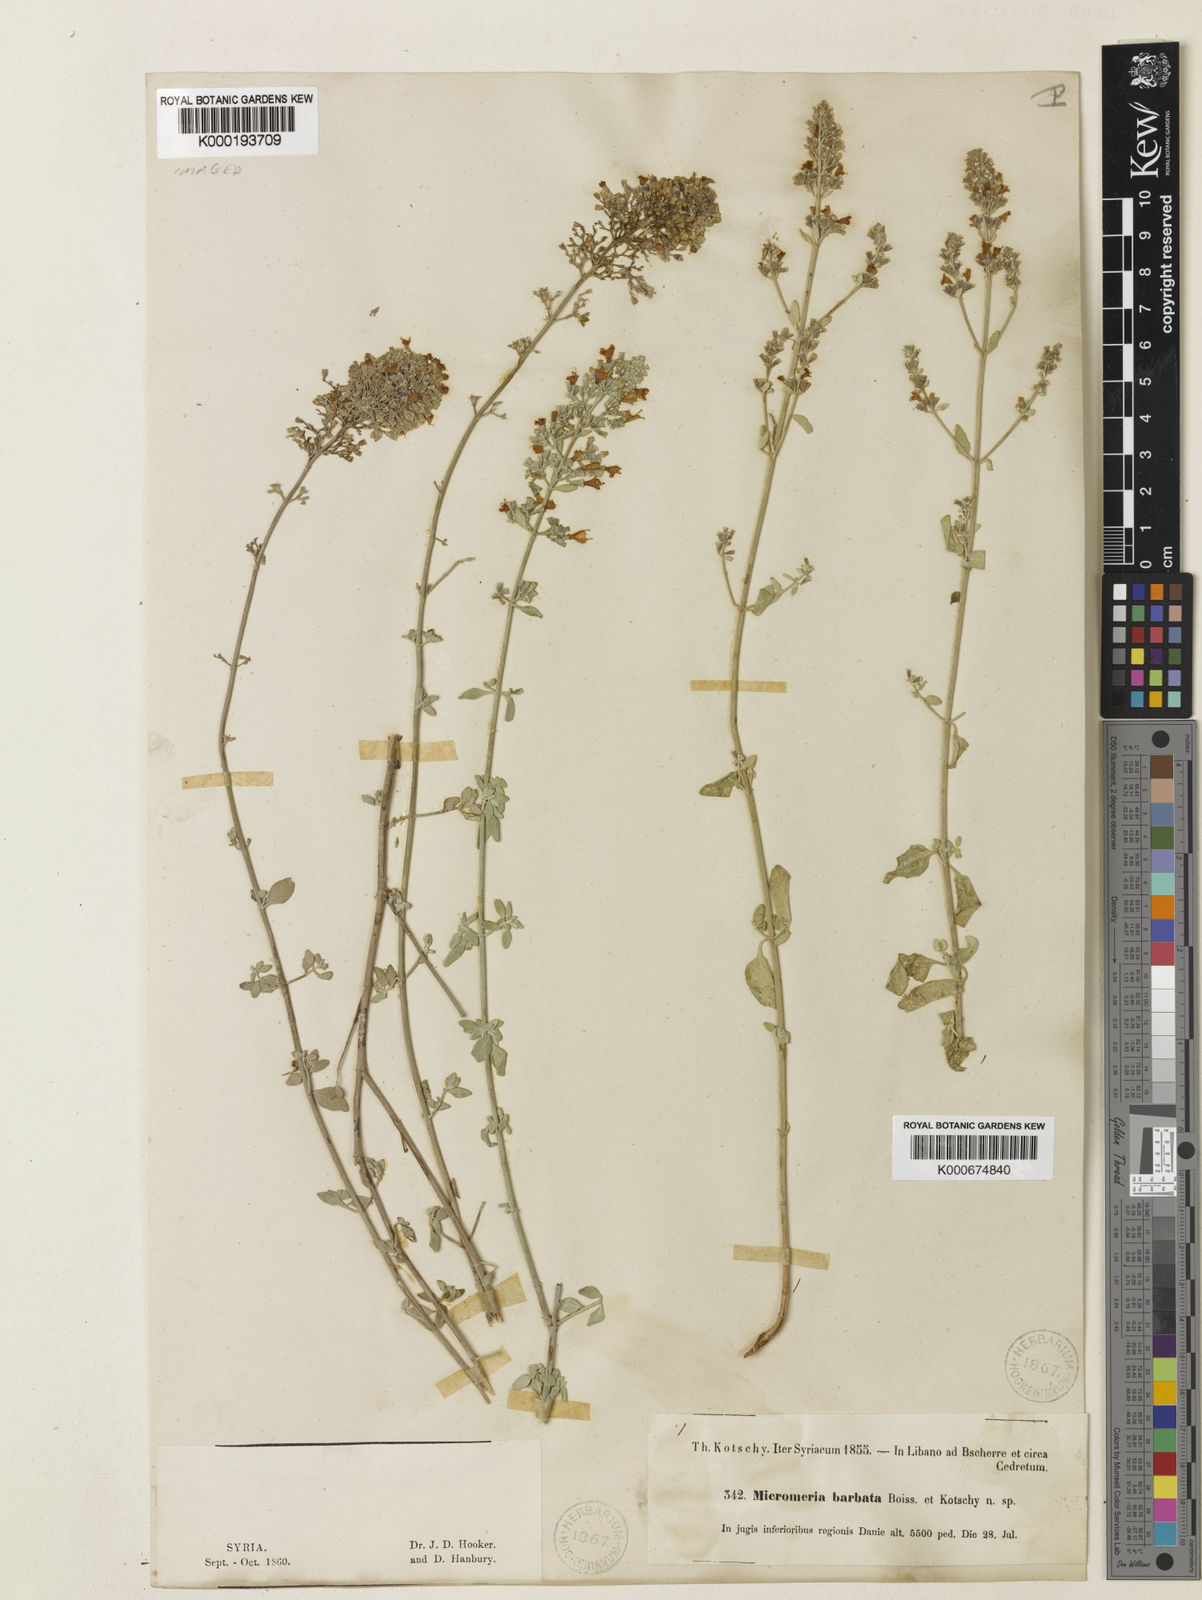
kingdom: Plantae
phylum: Tracheophyta
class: Magnoliopsida
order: Lamiales
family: Lamiaceae
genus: Clinopodium
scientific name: Clinopodium serpyllifolium
